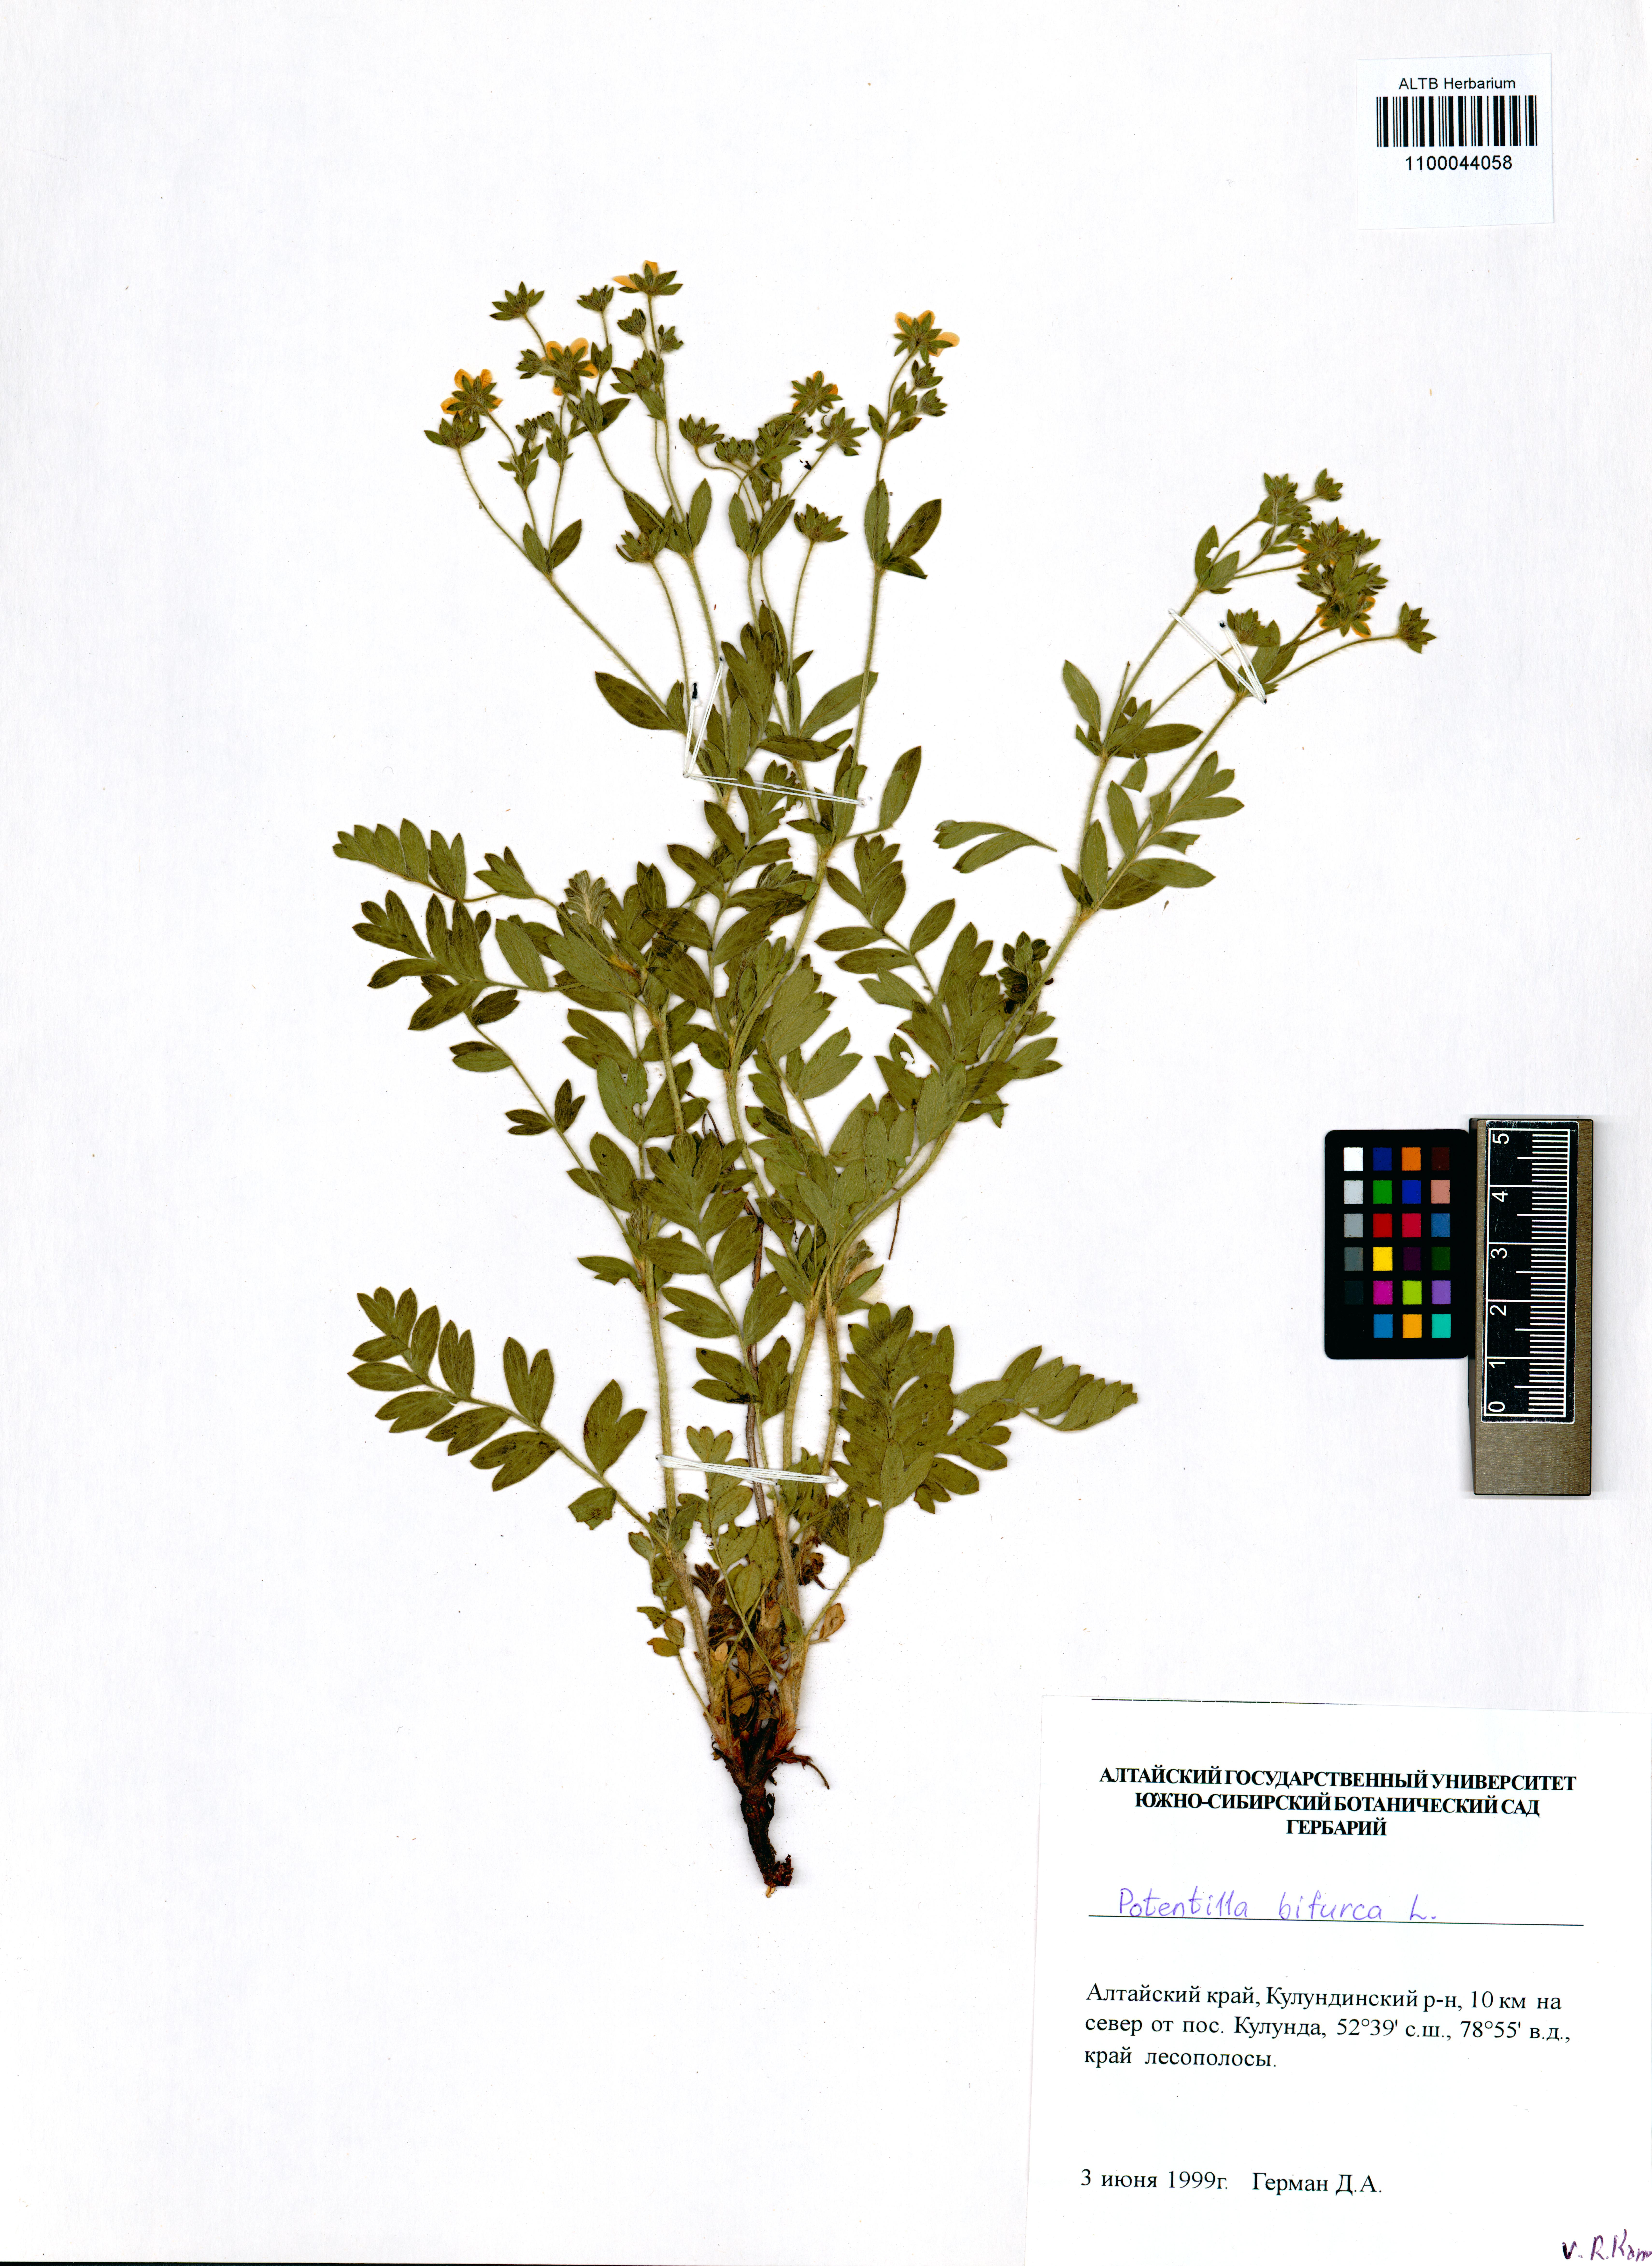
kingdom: Plantae
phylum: Tracheophyta
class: Magnoliopsida
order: Rosales
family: Rosaceae
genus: Sibbaldianthe
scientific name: Sibbaldianthe bifurca
